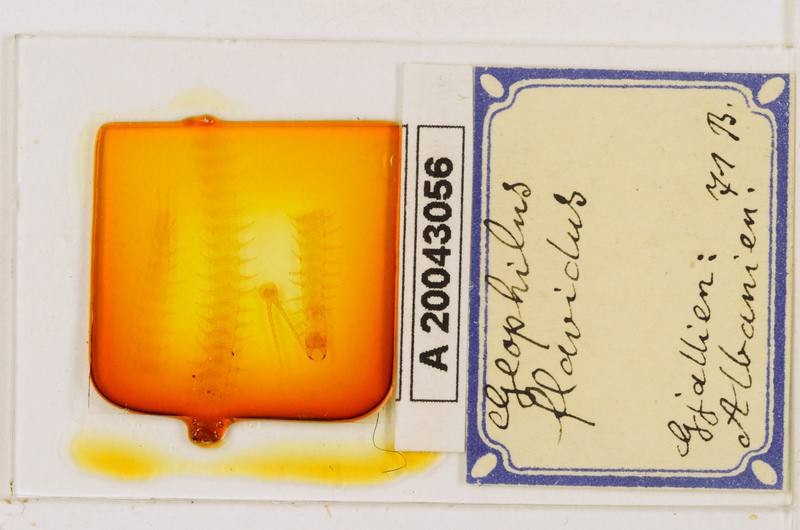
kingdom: Animalia
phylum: Arthropoda
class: Chilopoda
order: Geophilomorpha
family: Geophilidae
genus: Clinopodes
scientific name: Clinopodes flavidus
